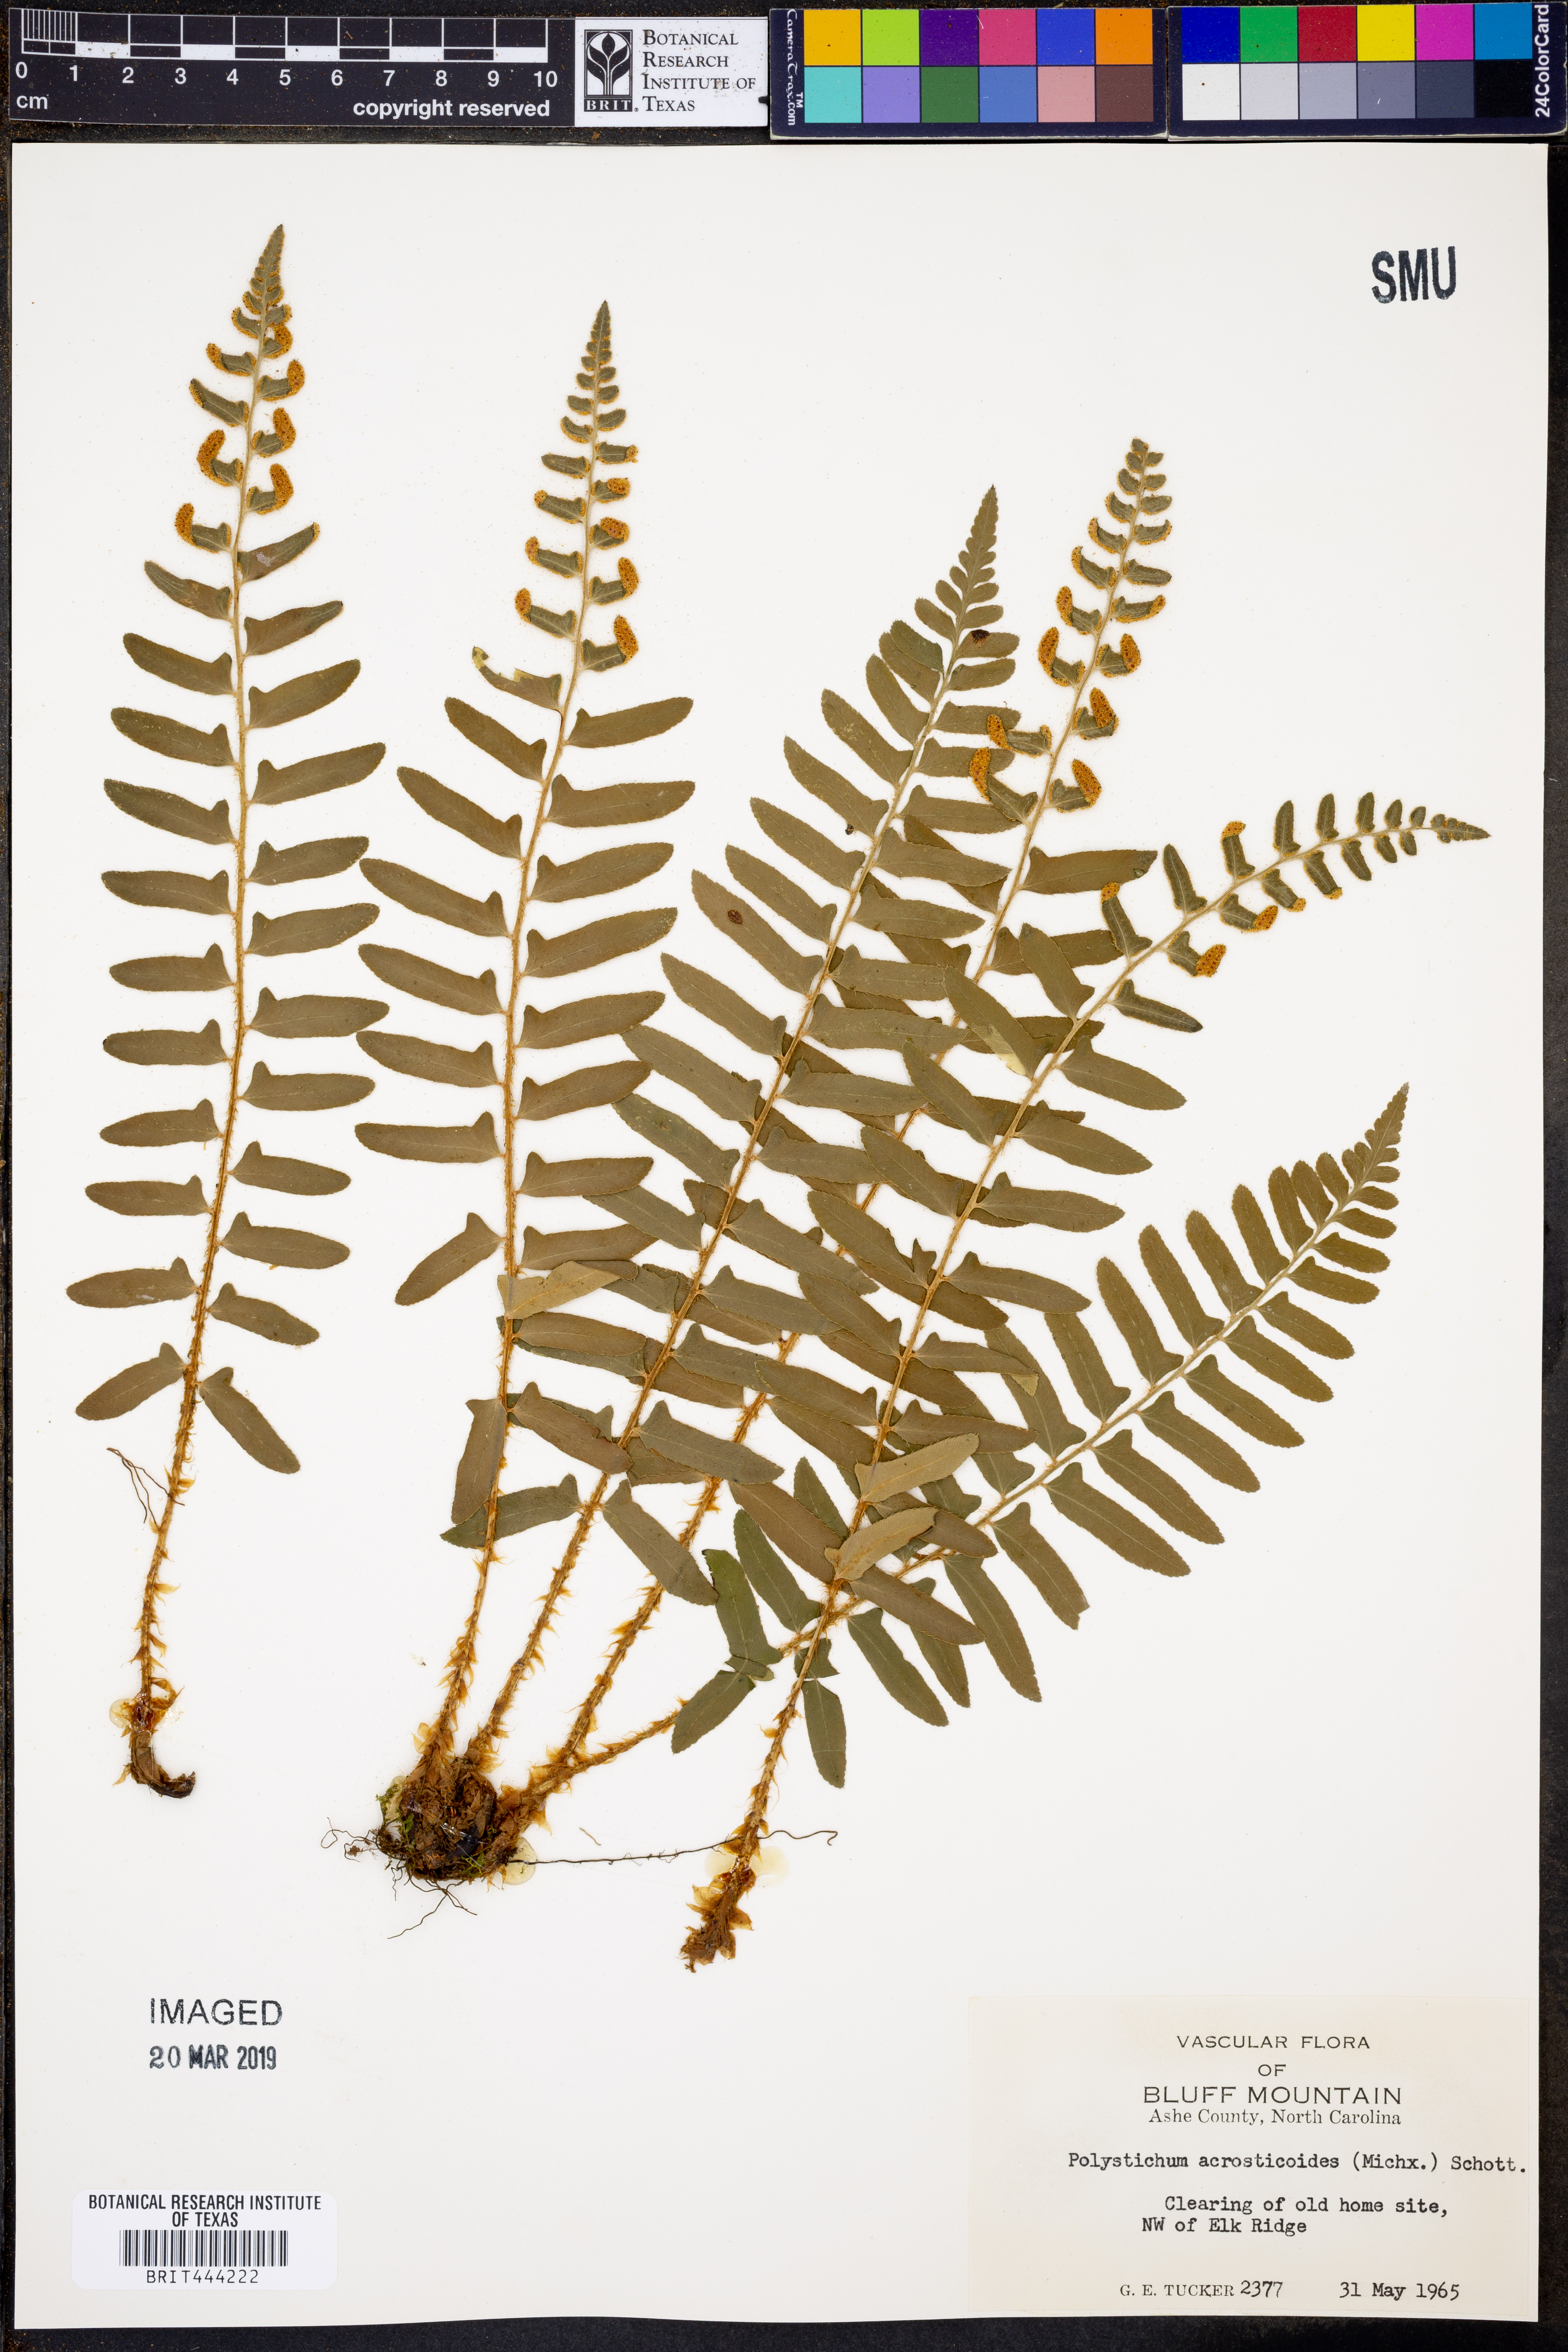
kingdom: Plantae
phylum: Tracheophyta
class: Polypodiopsida
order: Polypodiales
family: Dryopteridaceae
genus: Polystichum
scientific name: Polystichum acrostichoides
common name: Christmas fern
